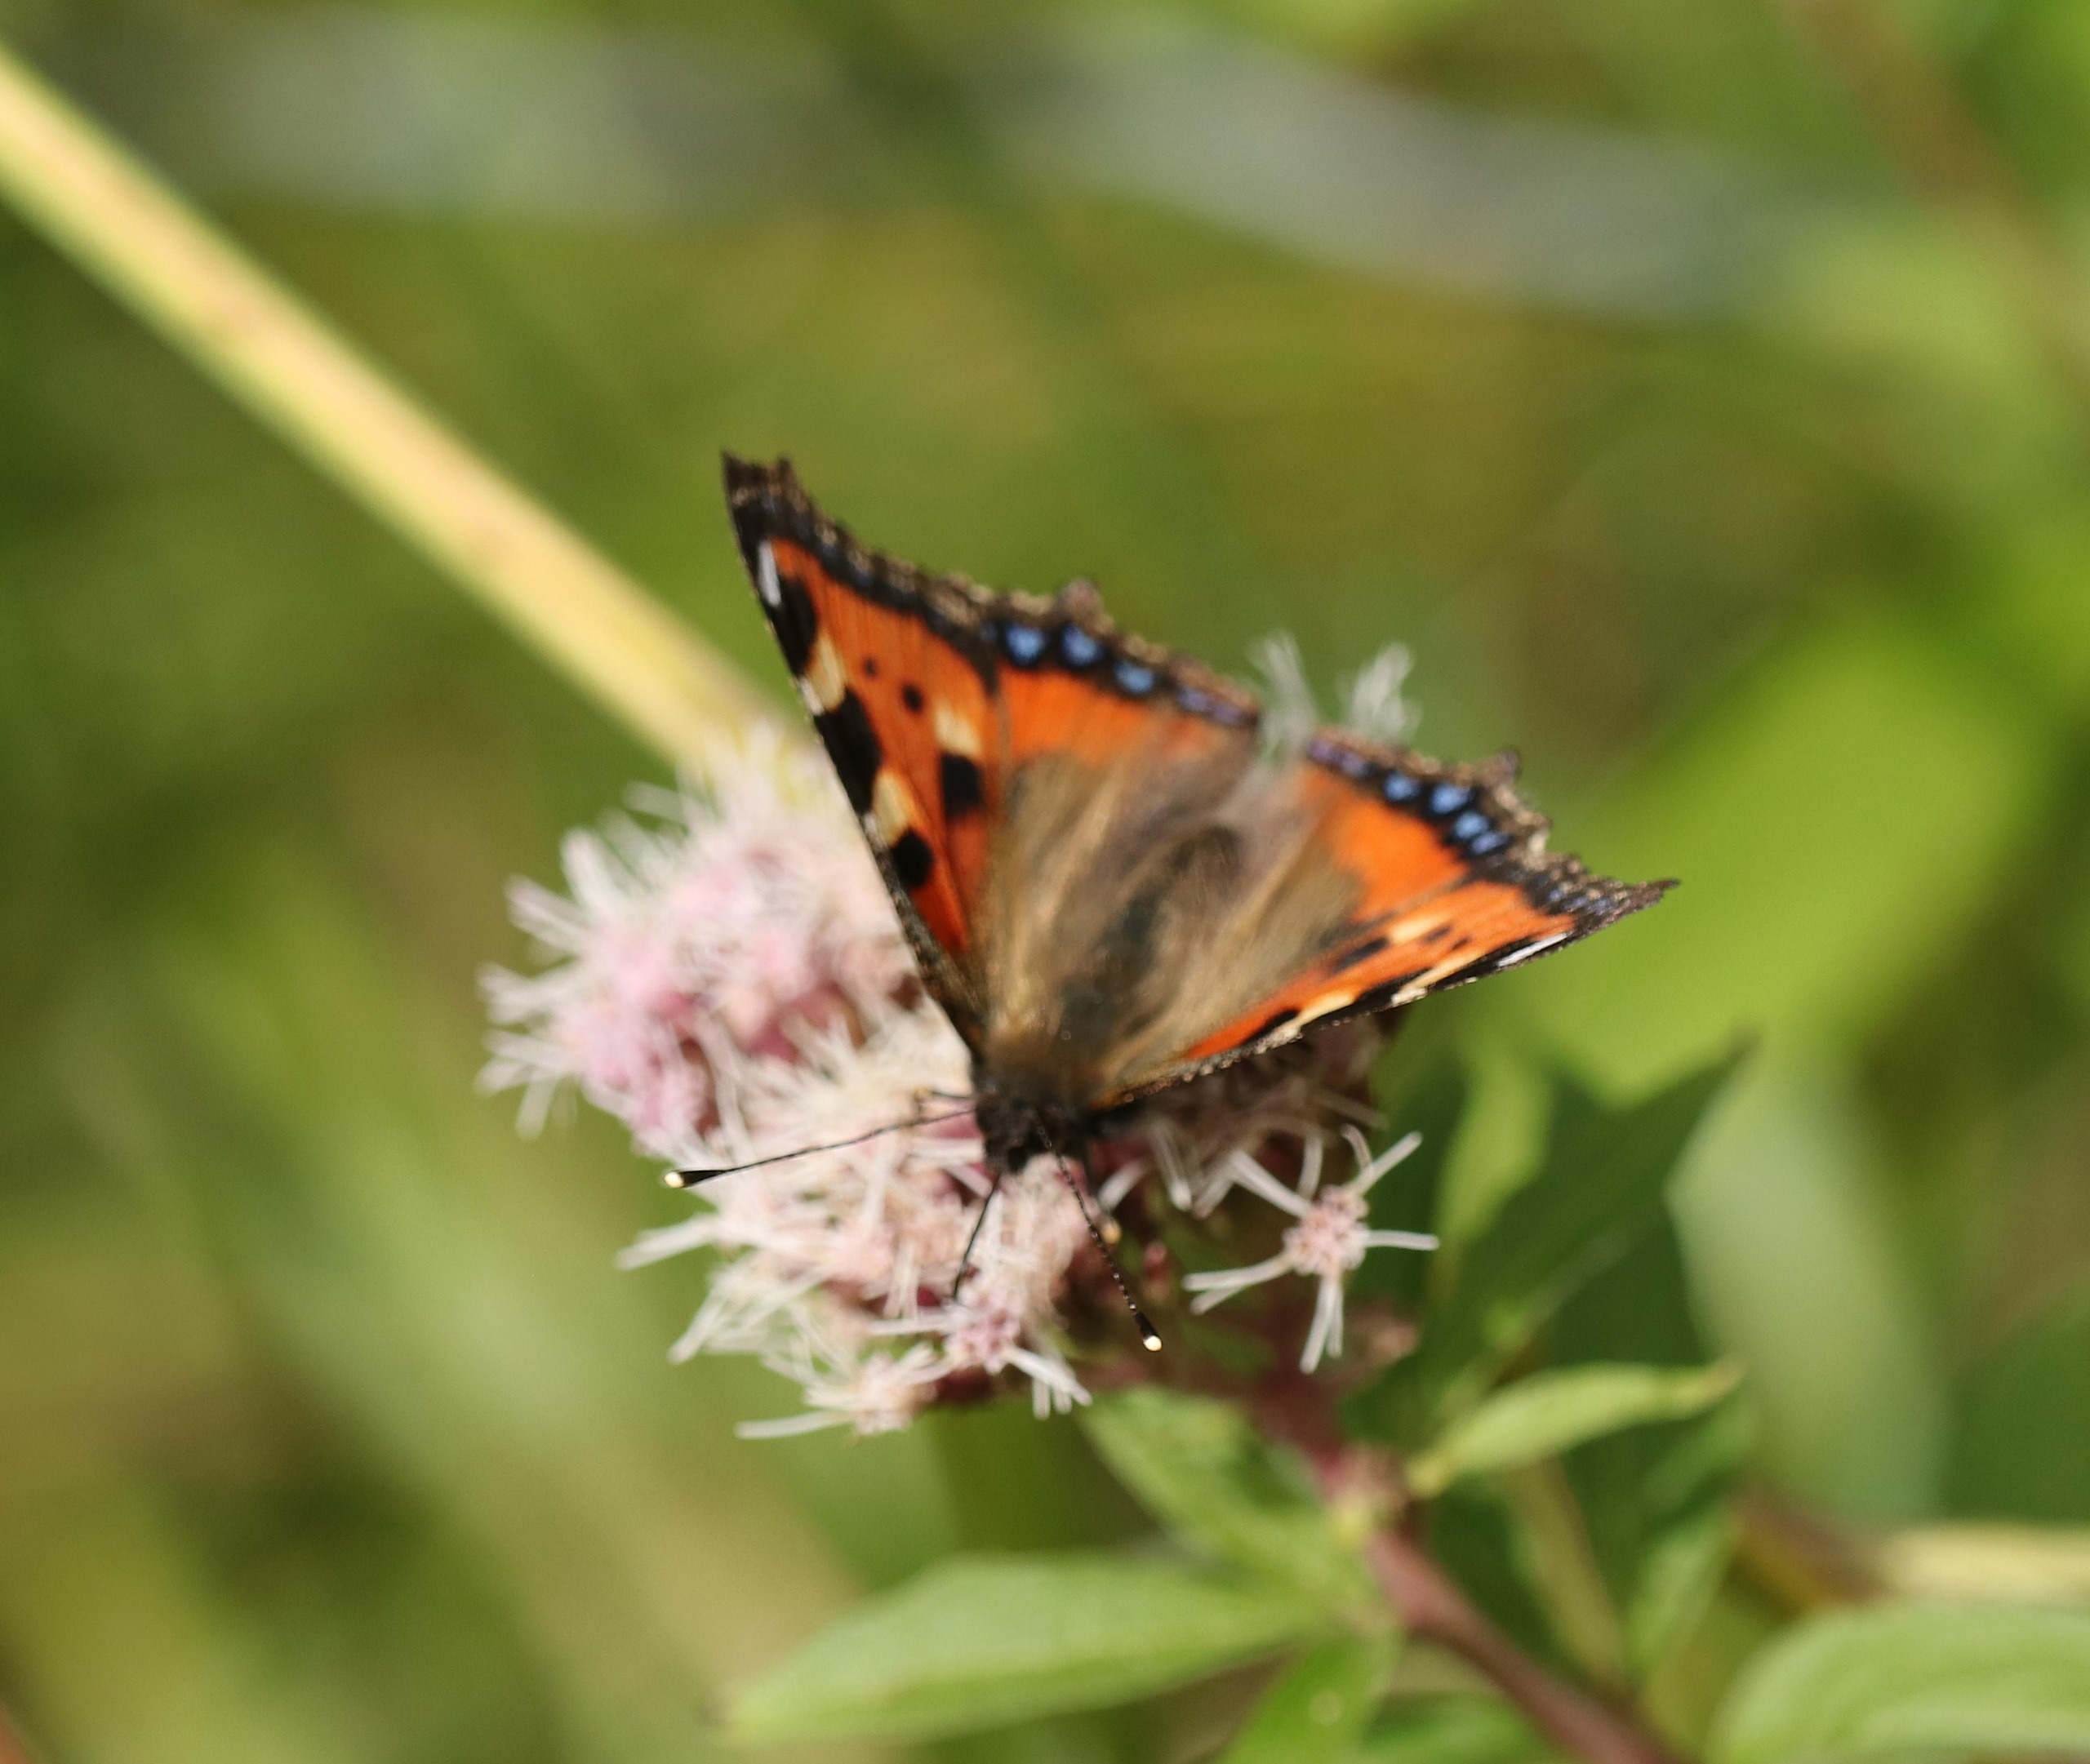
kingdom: Animalia
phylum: Arthropoda
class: Insecta
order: Lepidoptera
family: Nymphalidae
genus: Aglais
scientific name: Aglais urticae
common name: Nældens takvinge
